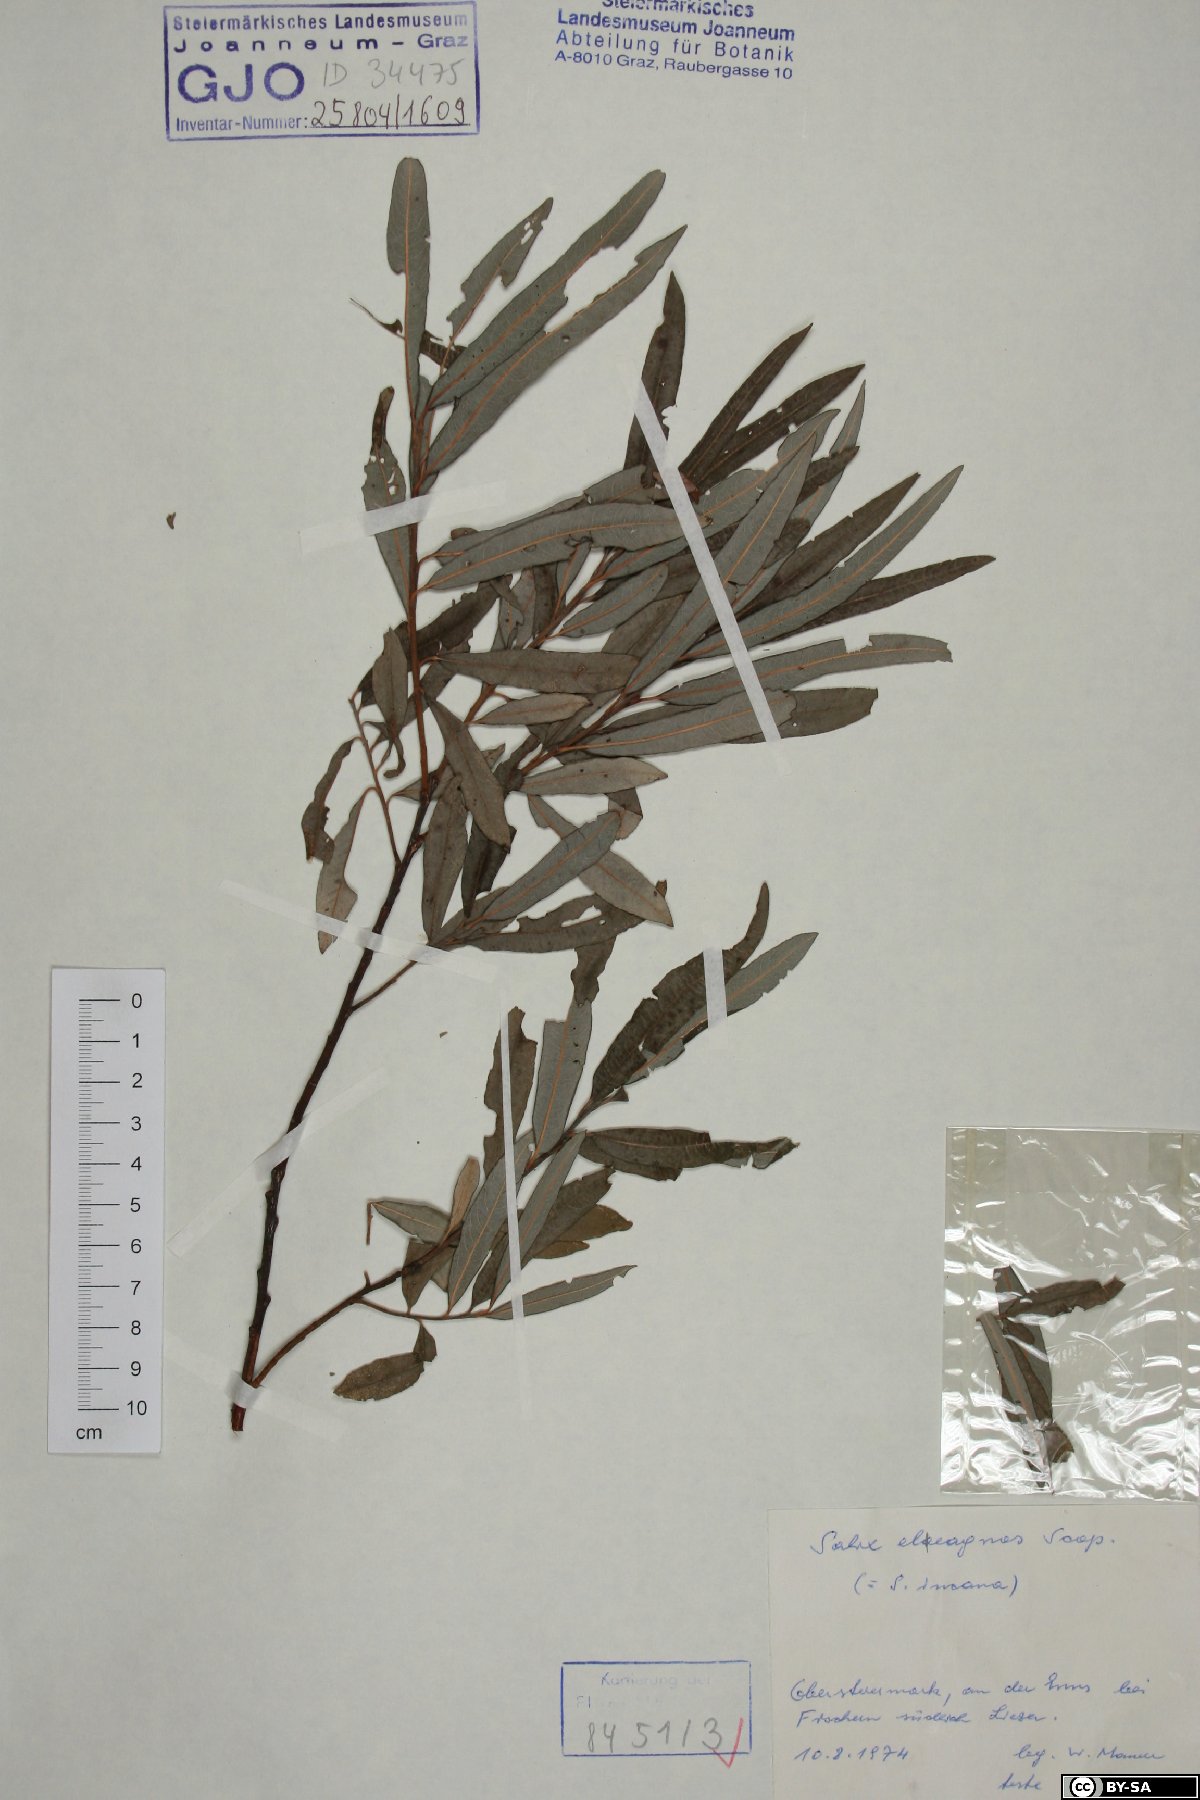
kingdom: Plantae
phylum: Tracheophyta
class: Magnoliopsida
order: Malpighiales
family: Salicaceae
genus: Salix
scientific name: Salix eleagnos
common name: Elaeagnus willow
